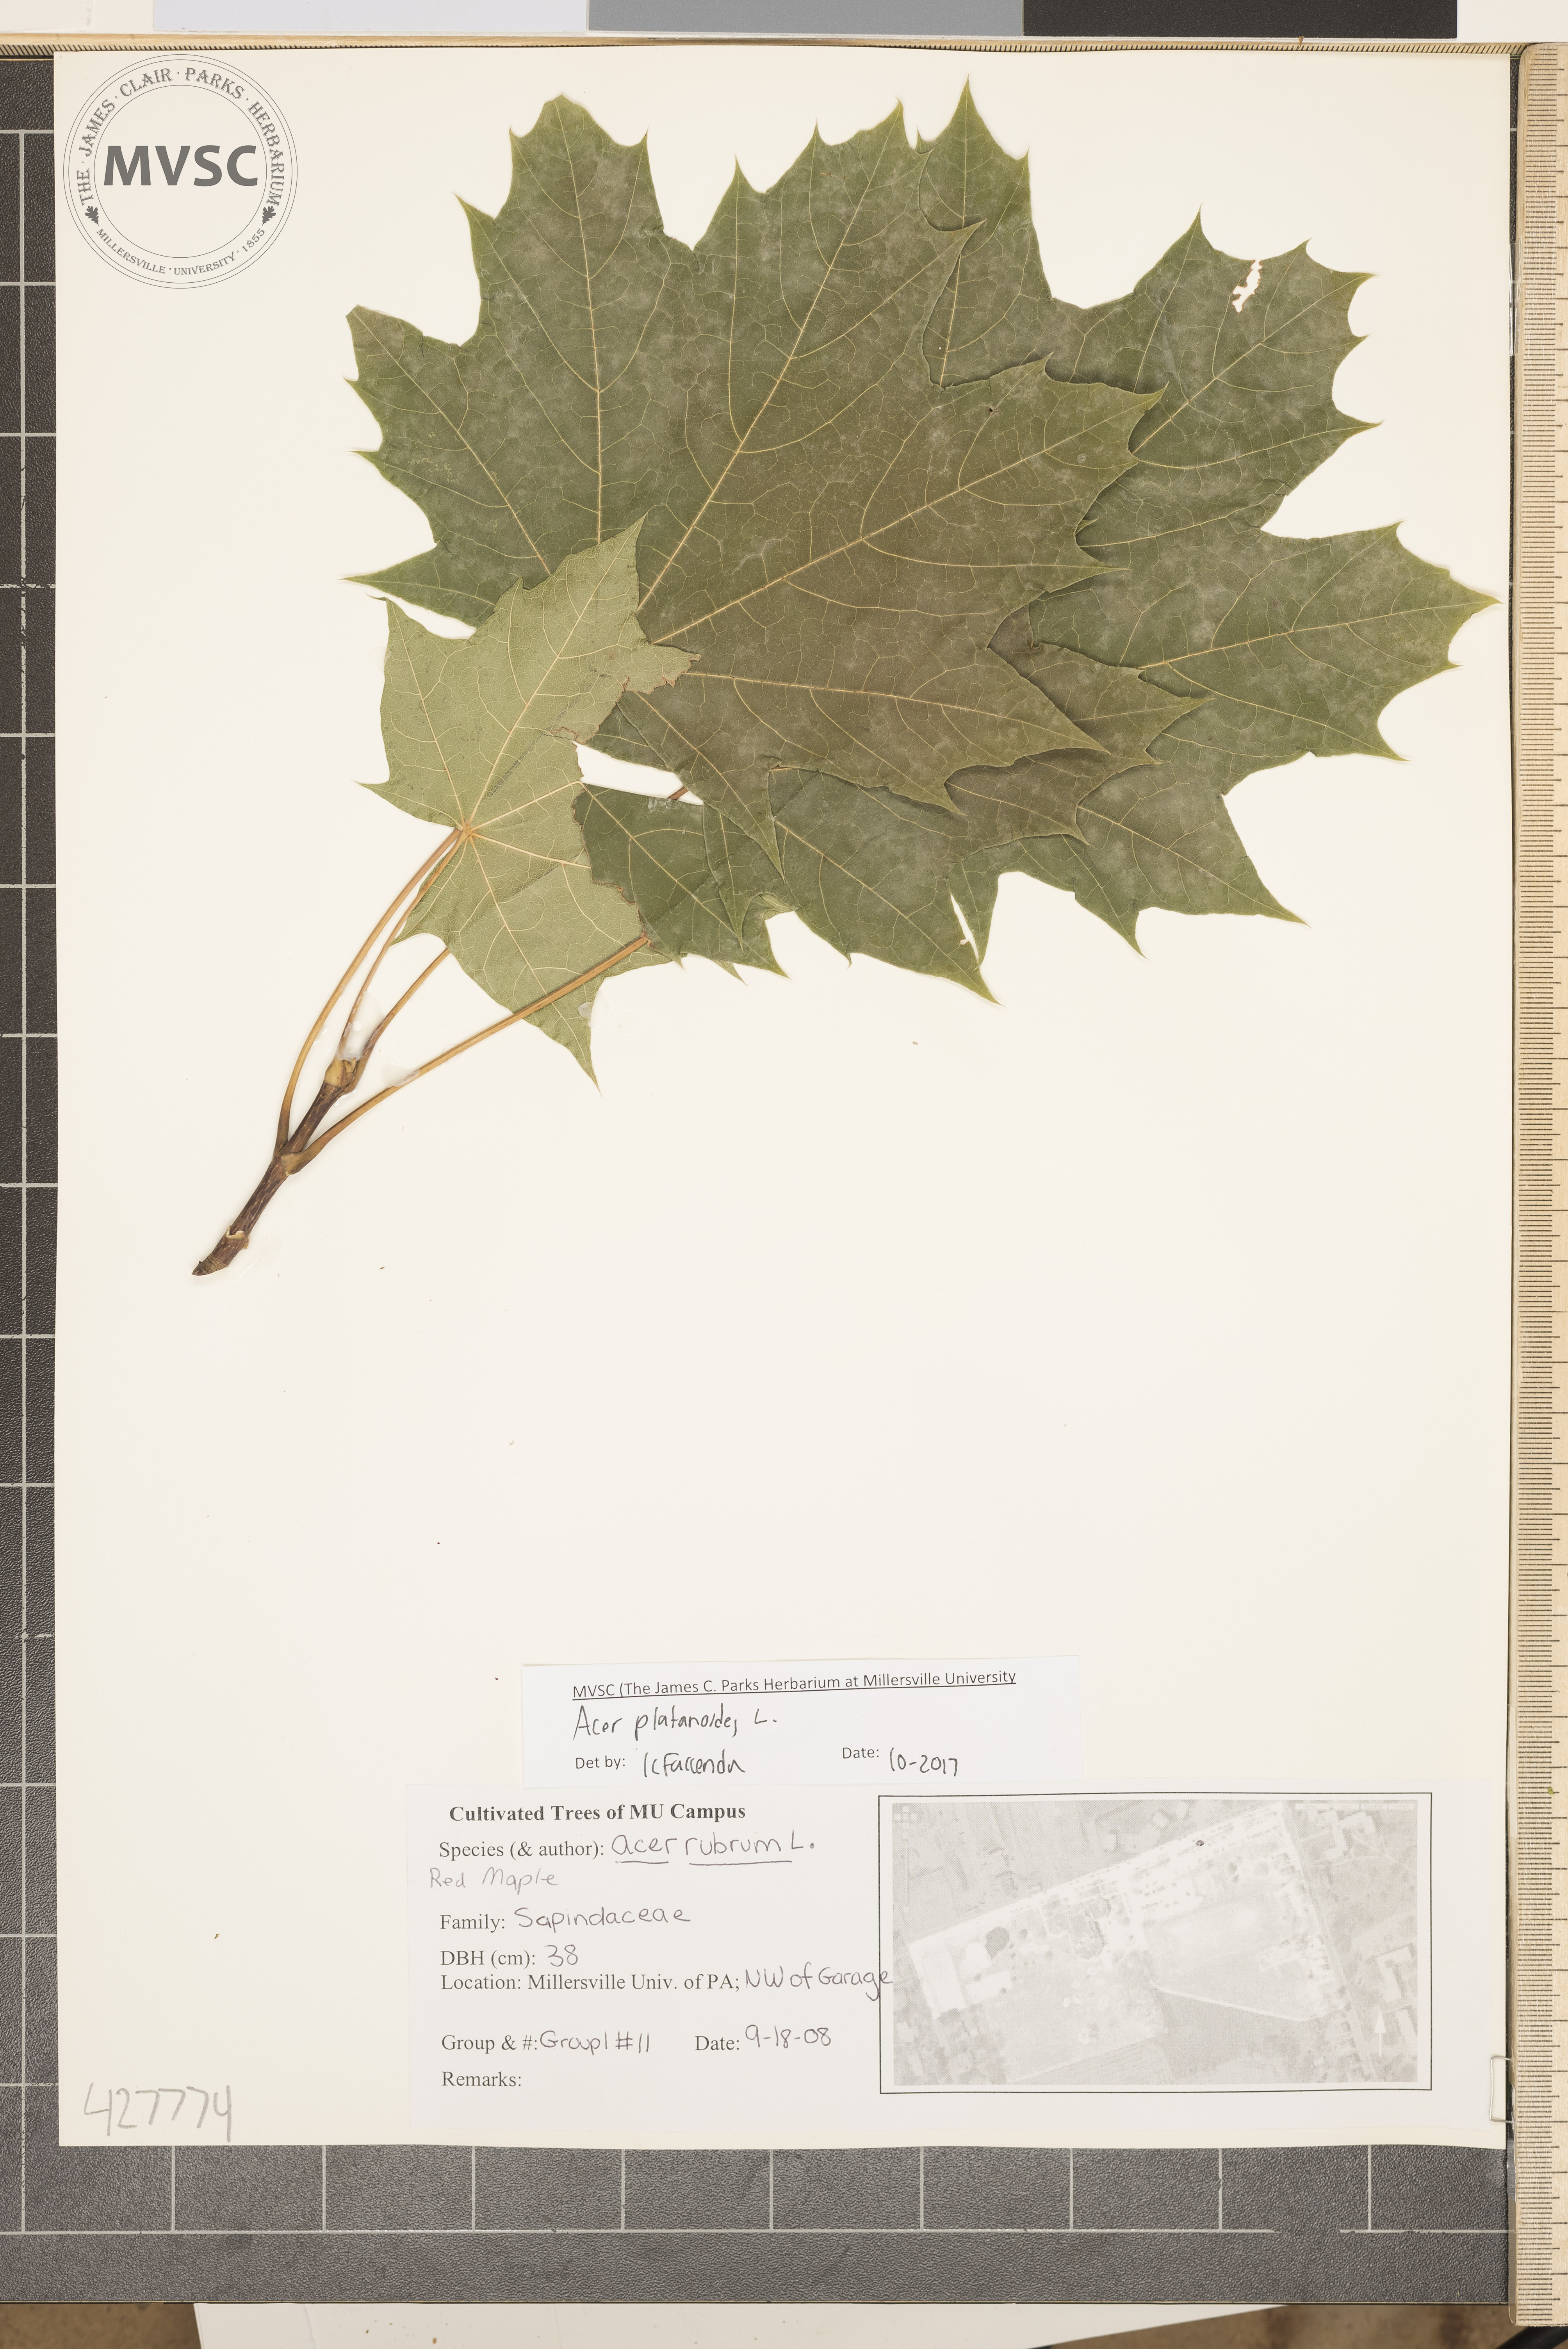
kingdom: Plantae
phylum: Tracheophyta
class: Magnoliopsida
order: Sapindales
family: Sapindaceae
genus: Acer
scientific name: Acer platanoides
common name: Norway maple
